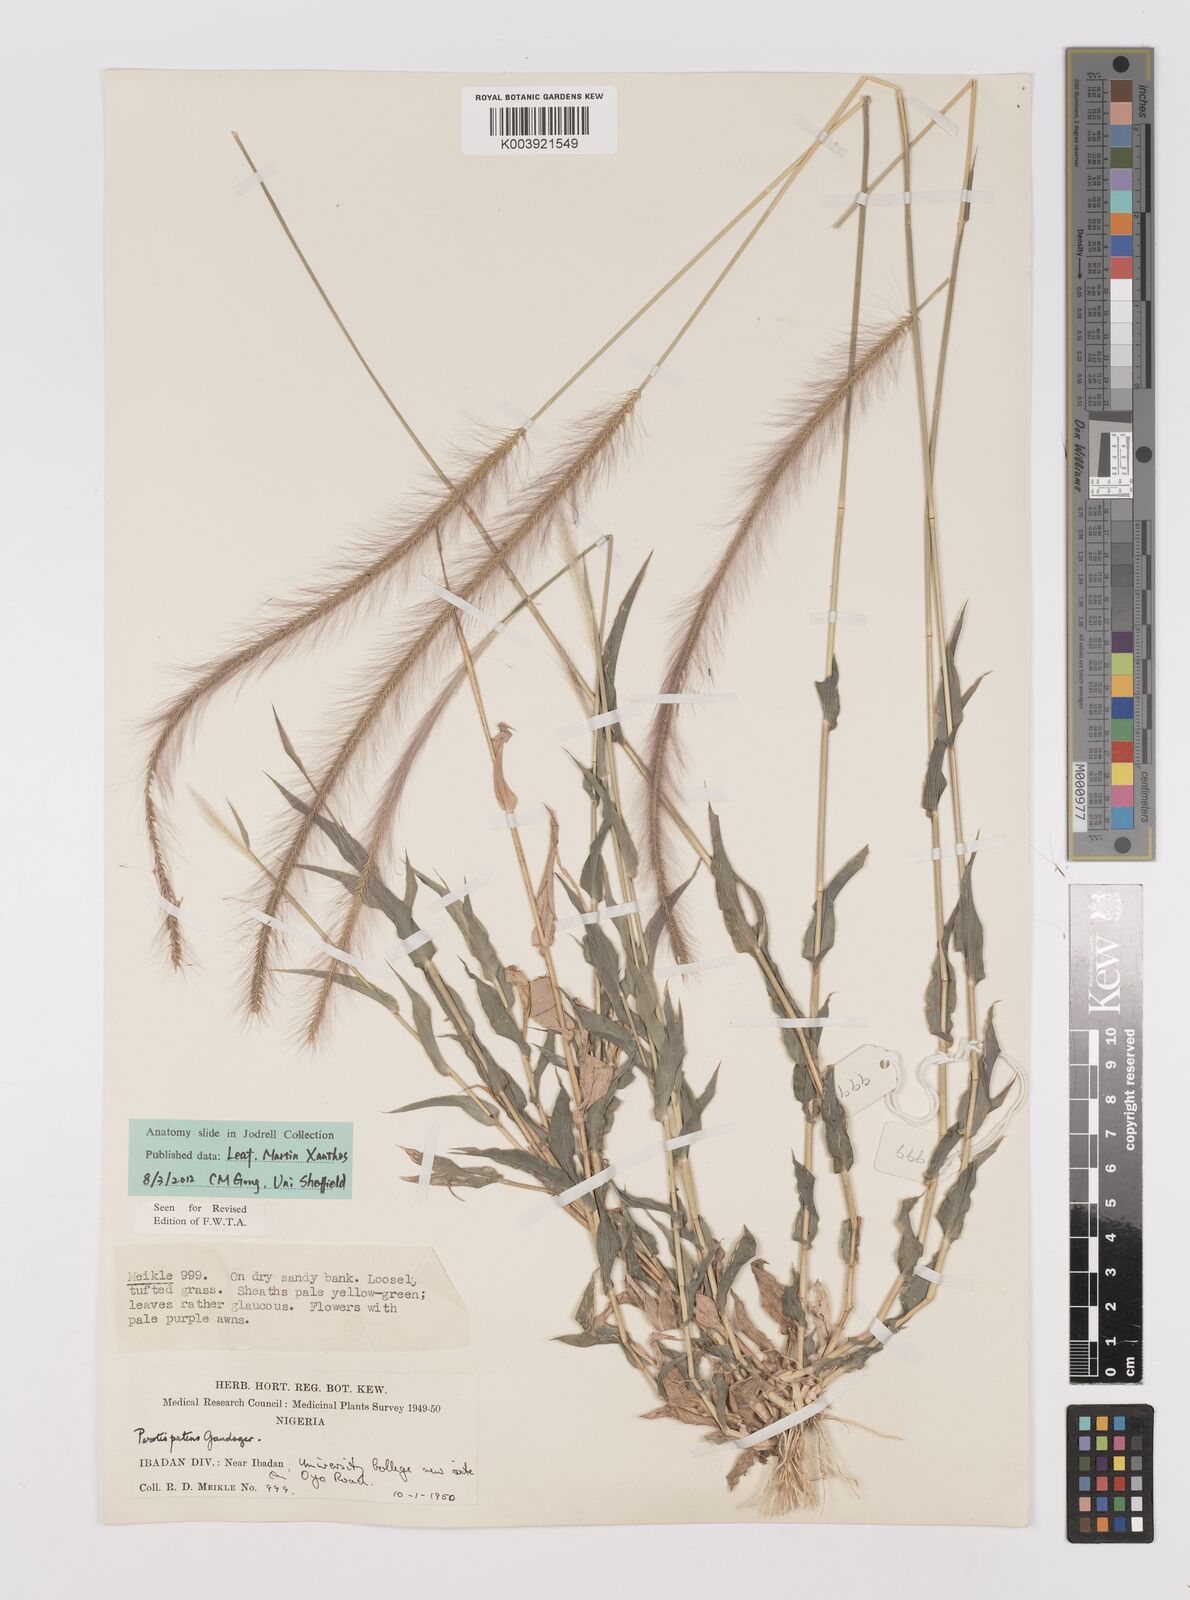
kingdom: Plantae
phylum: Tracheophyta
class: Liliopsida
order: Poales
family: Poaceae
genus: Perotis
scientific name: Perotis patens
